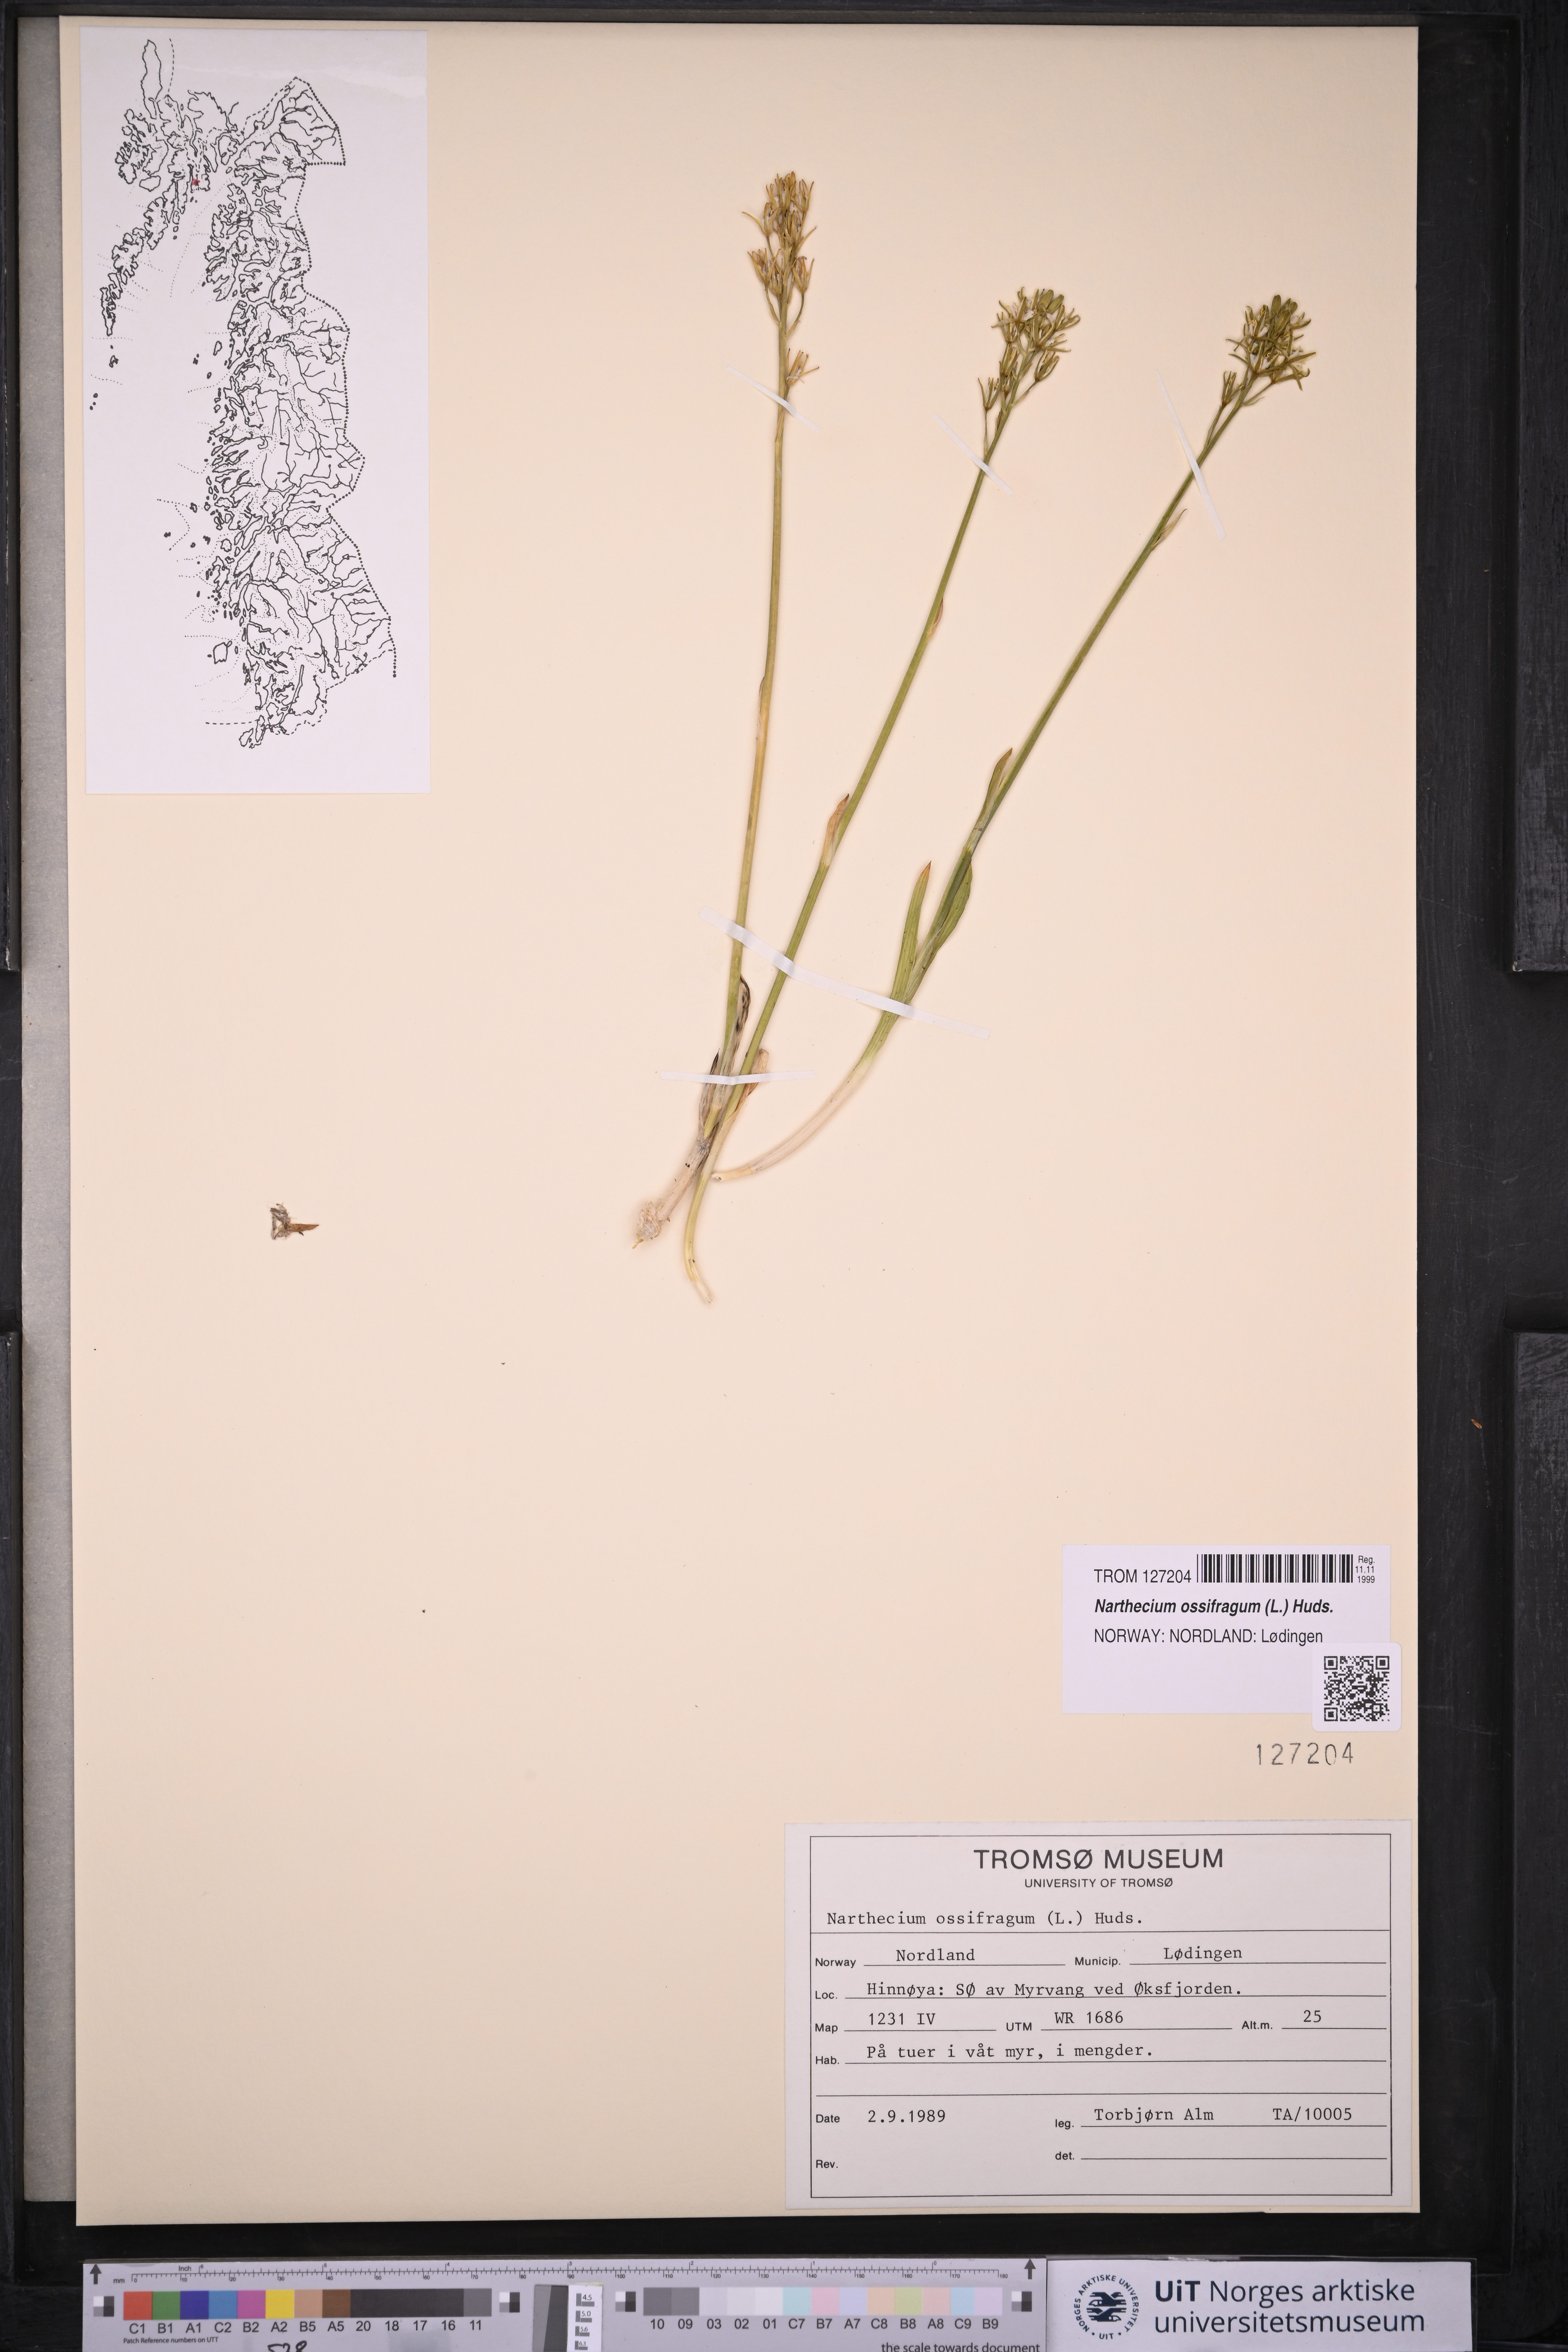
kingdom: Plantae
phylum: Tracheophyta
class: Liliopsida
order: Dioscoreales
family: Nartheciaceae
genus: Narthecium
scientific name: Narthecium ossifragum
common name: Bog asphodel
